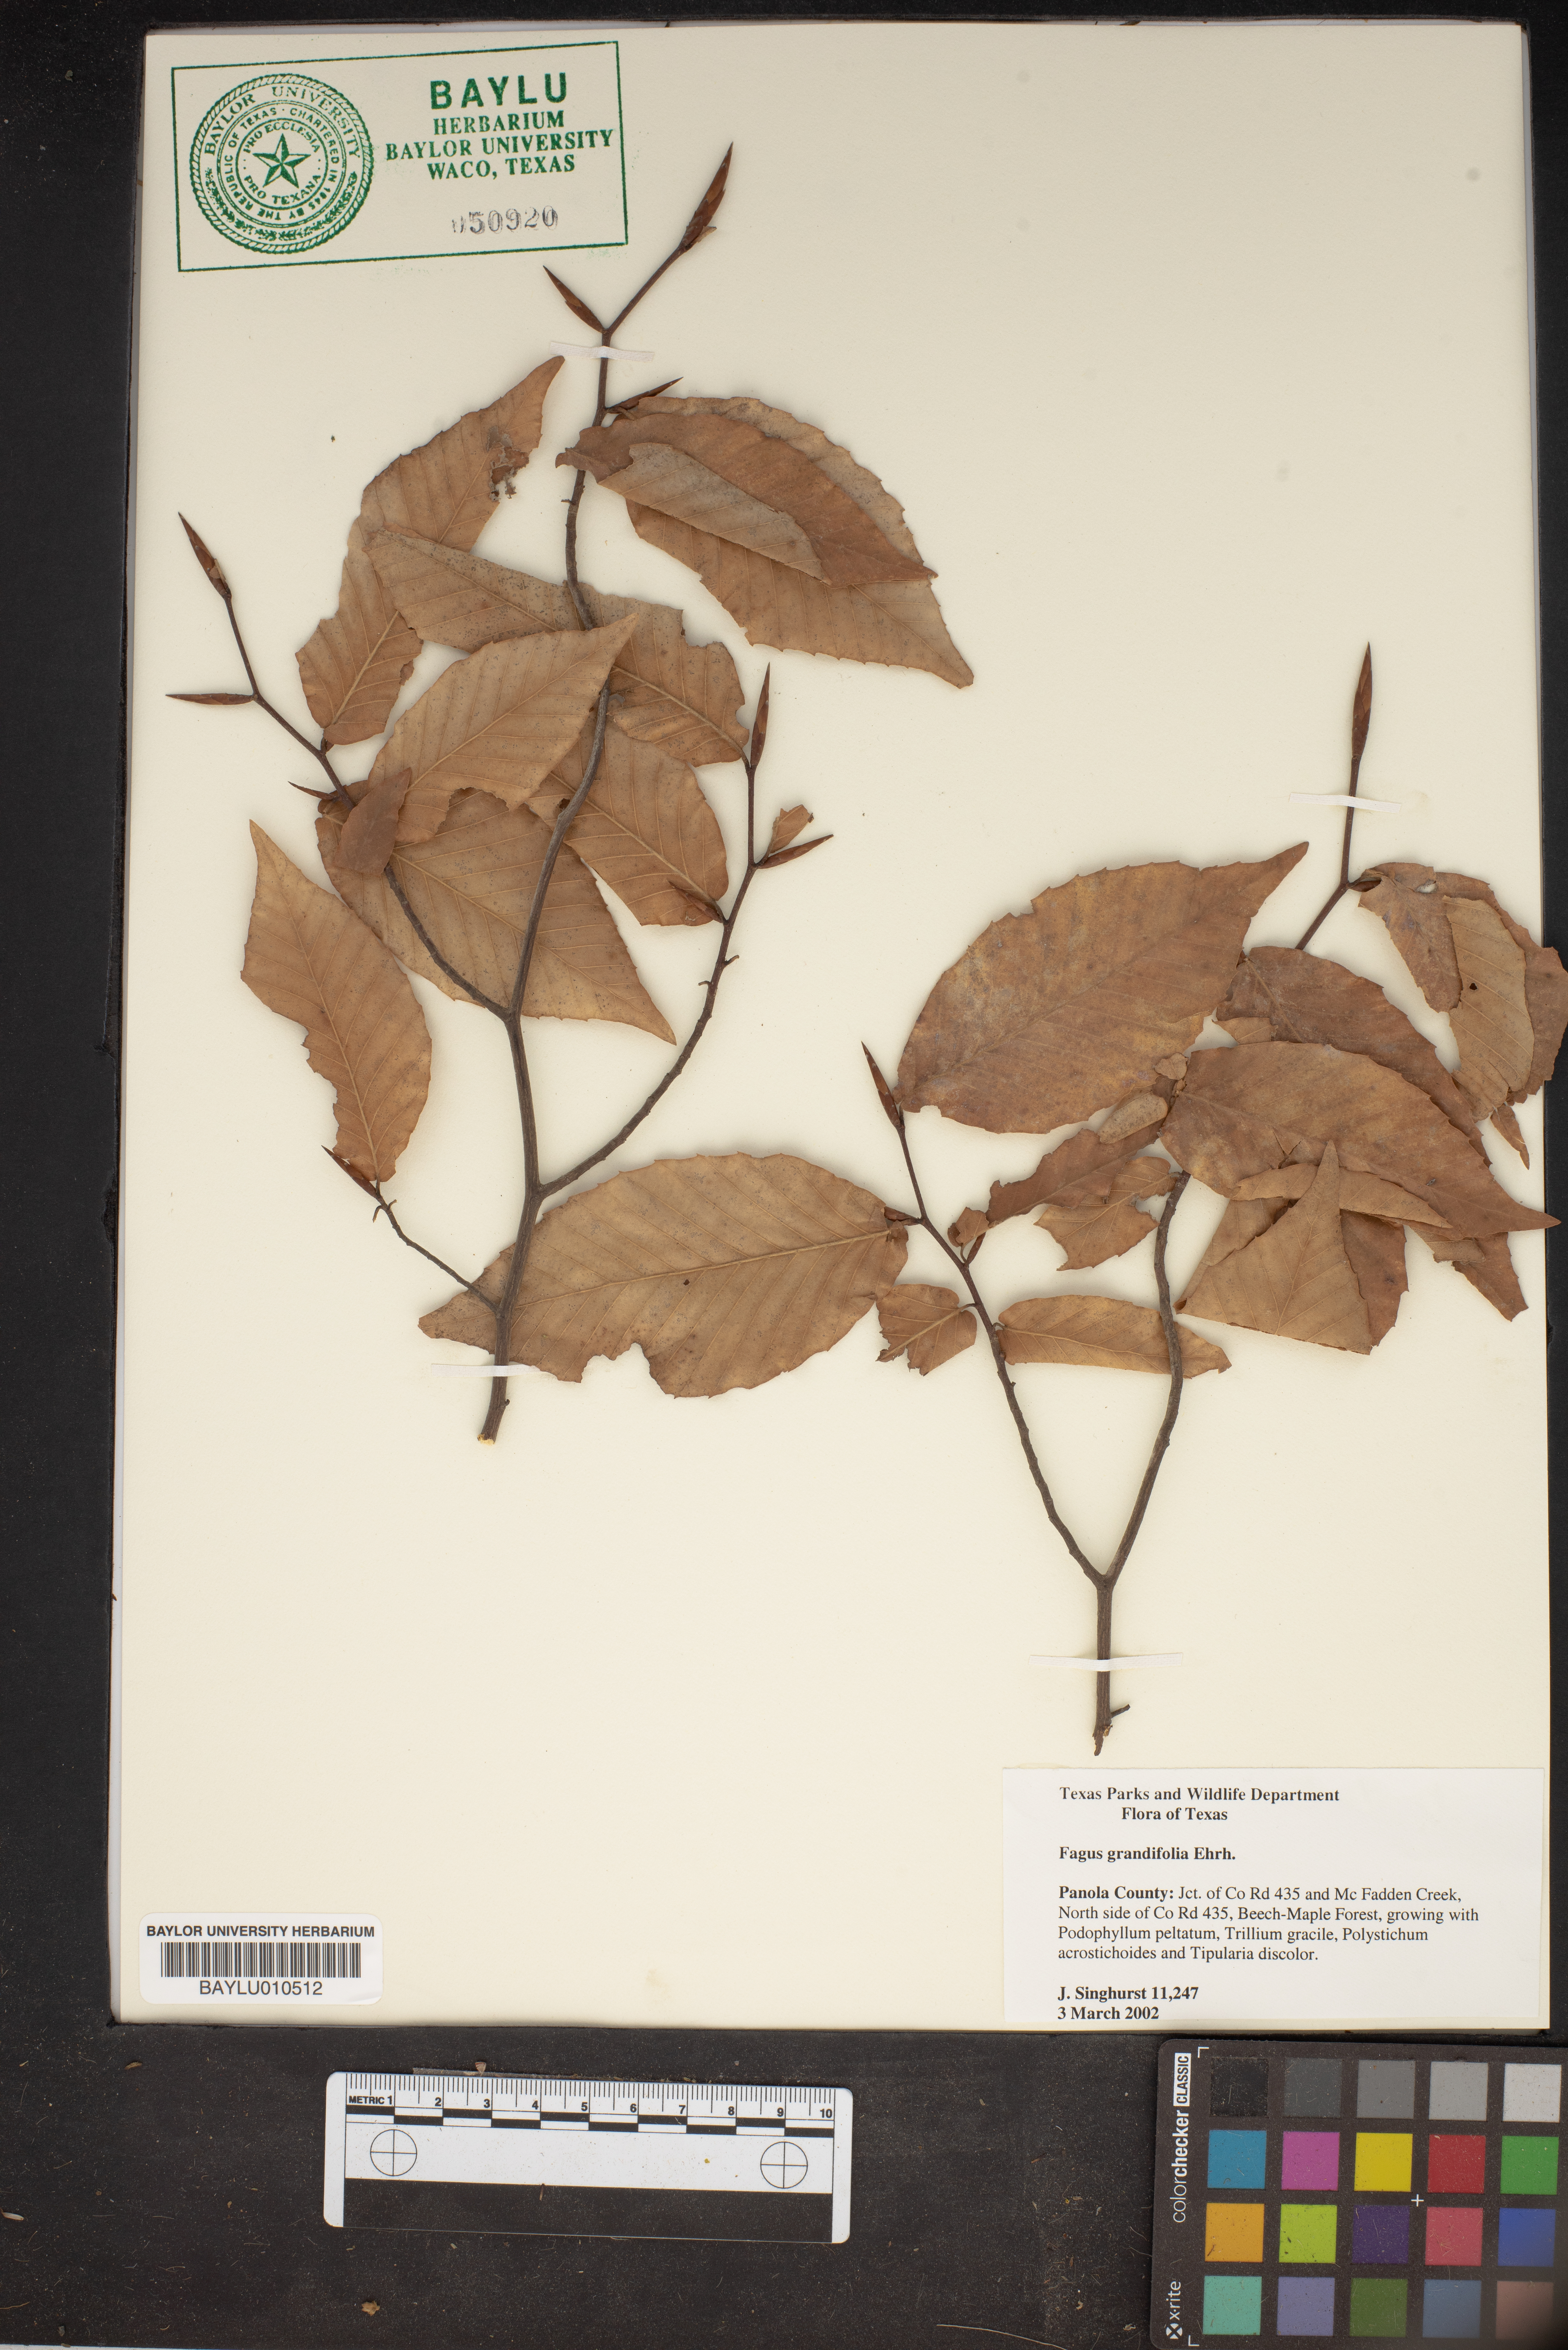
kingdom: Plantae
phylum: Tracheophyta
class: Magnoliopsida
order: Fagales
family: Fagaceae
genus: Fagus
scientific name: Fagus grandifolia
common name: American beech
